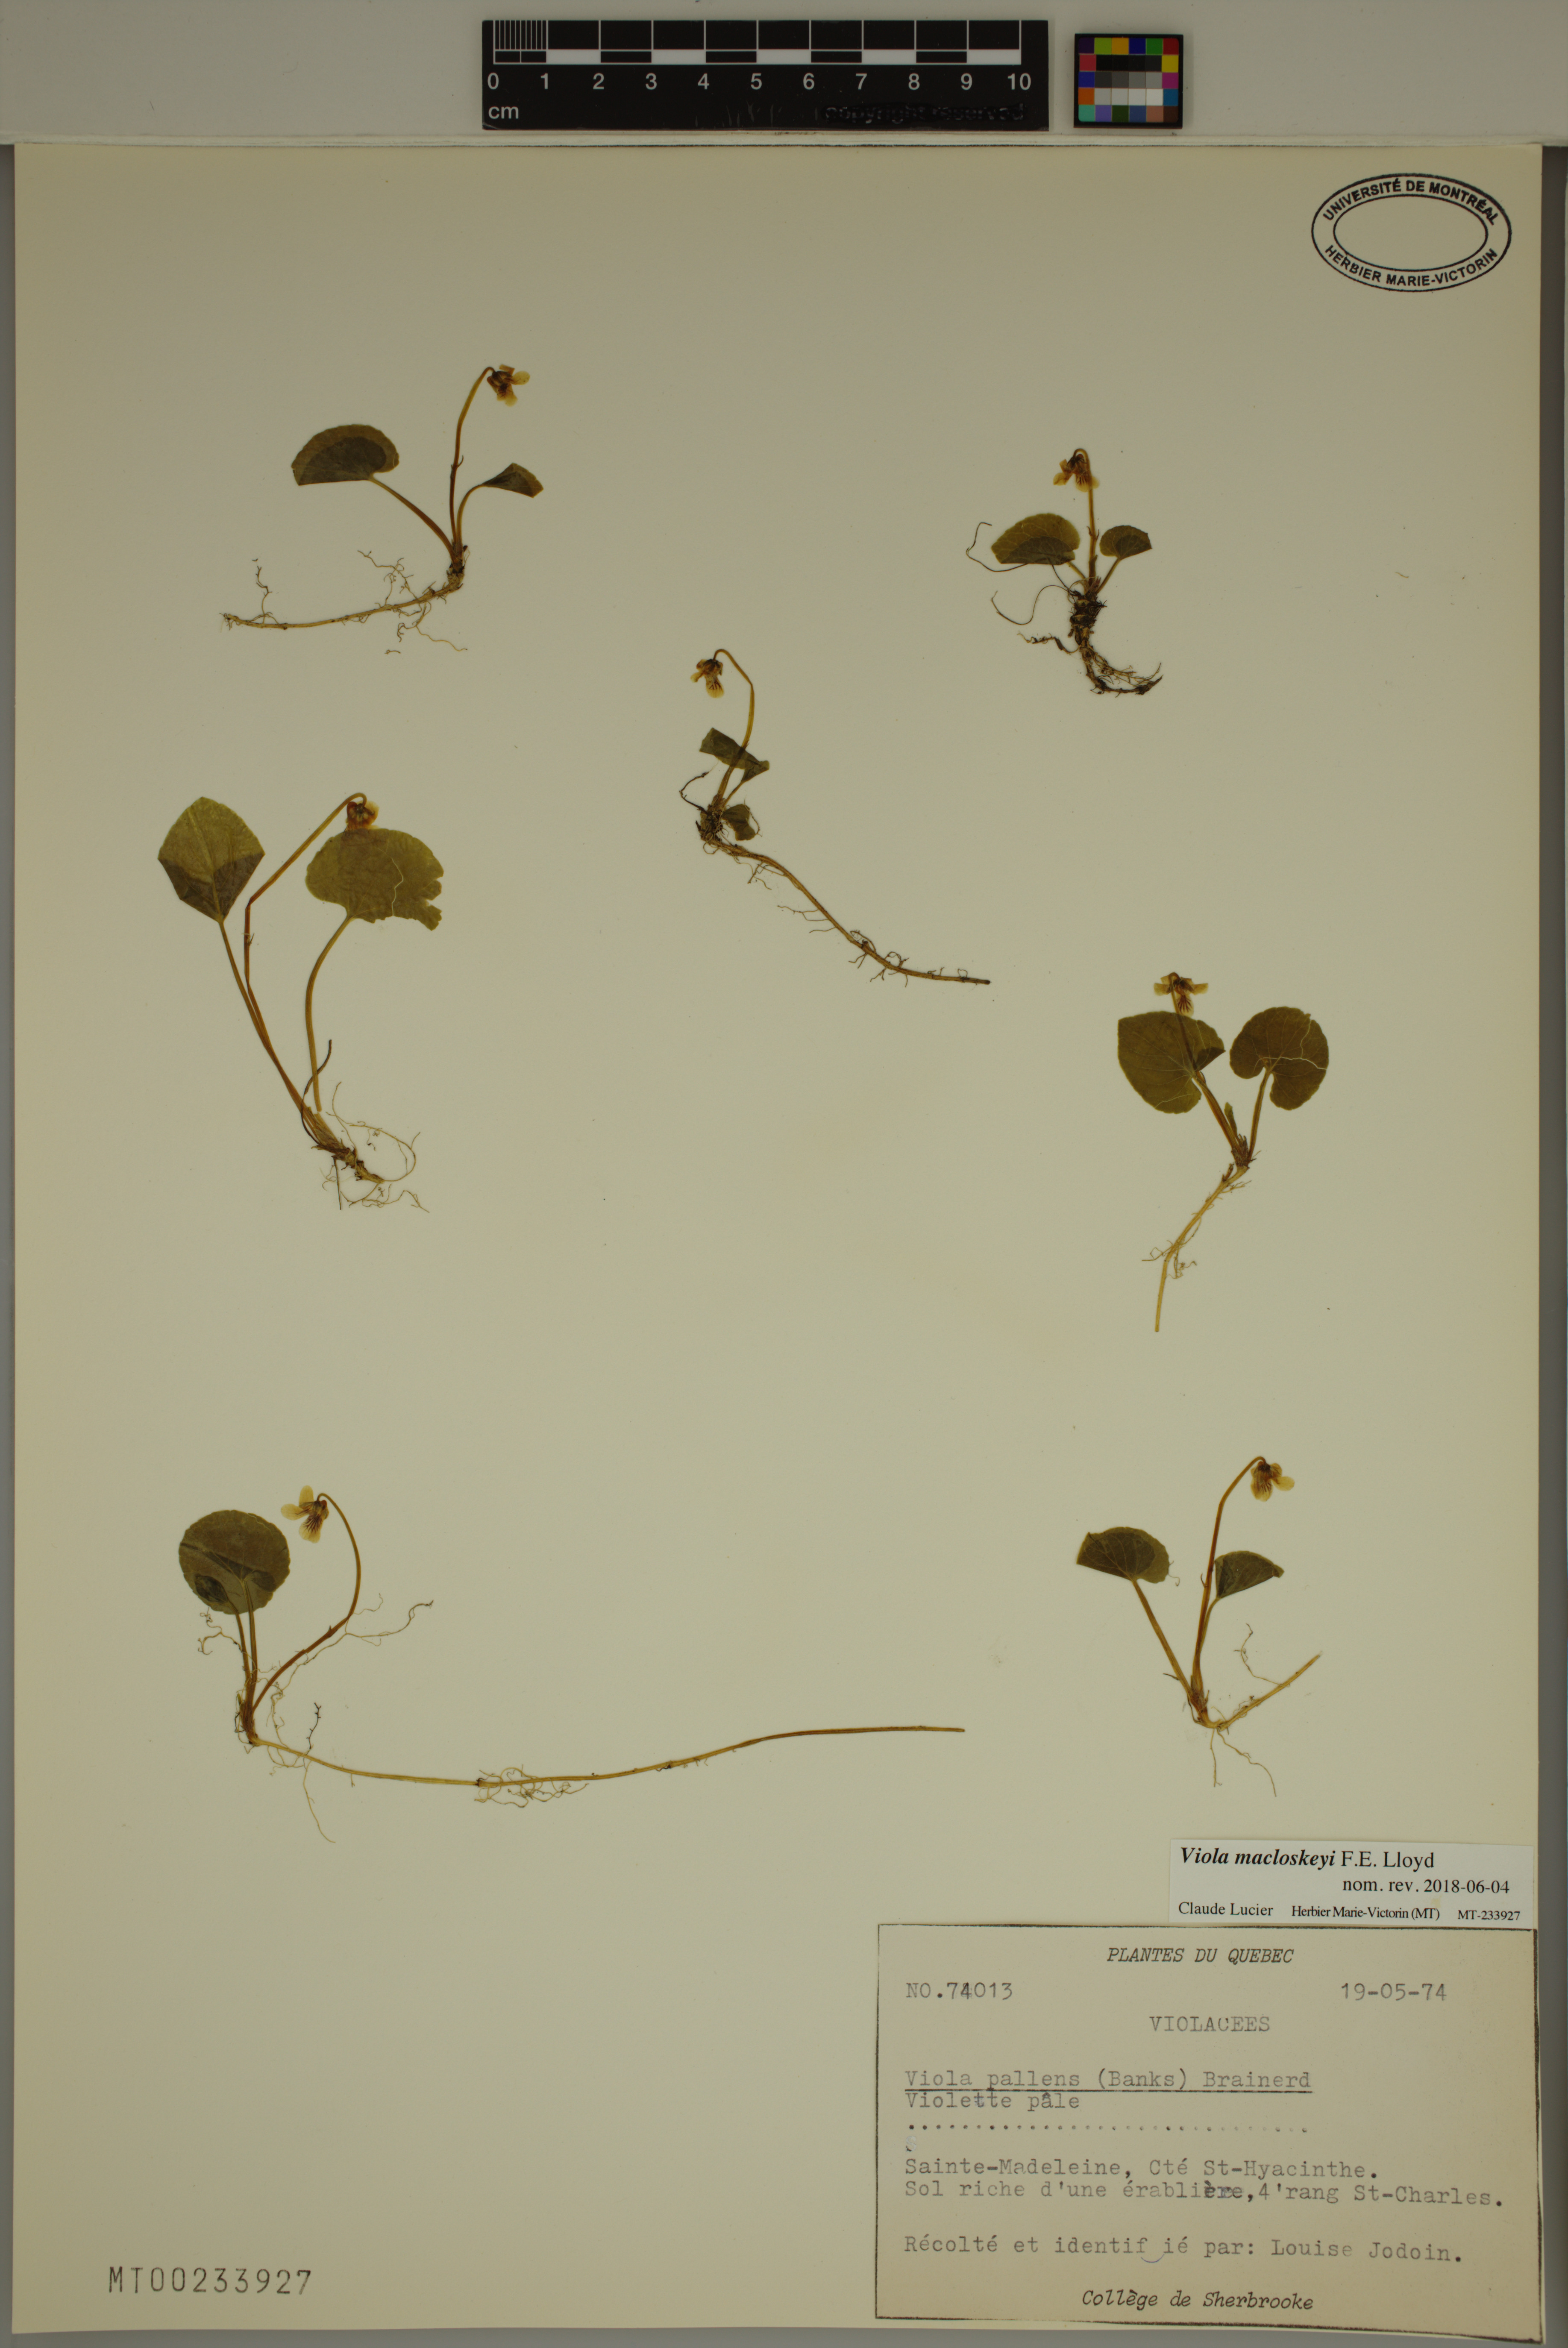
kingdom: Plantae
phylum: Tracheophyta
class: Magnoliopsida
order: Malpighiales
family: Violaceae
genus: Viola
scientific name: Viola macloskeyi
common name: Macloskey's violet
